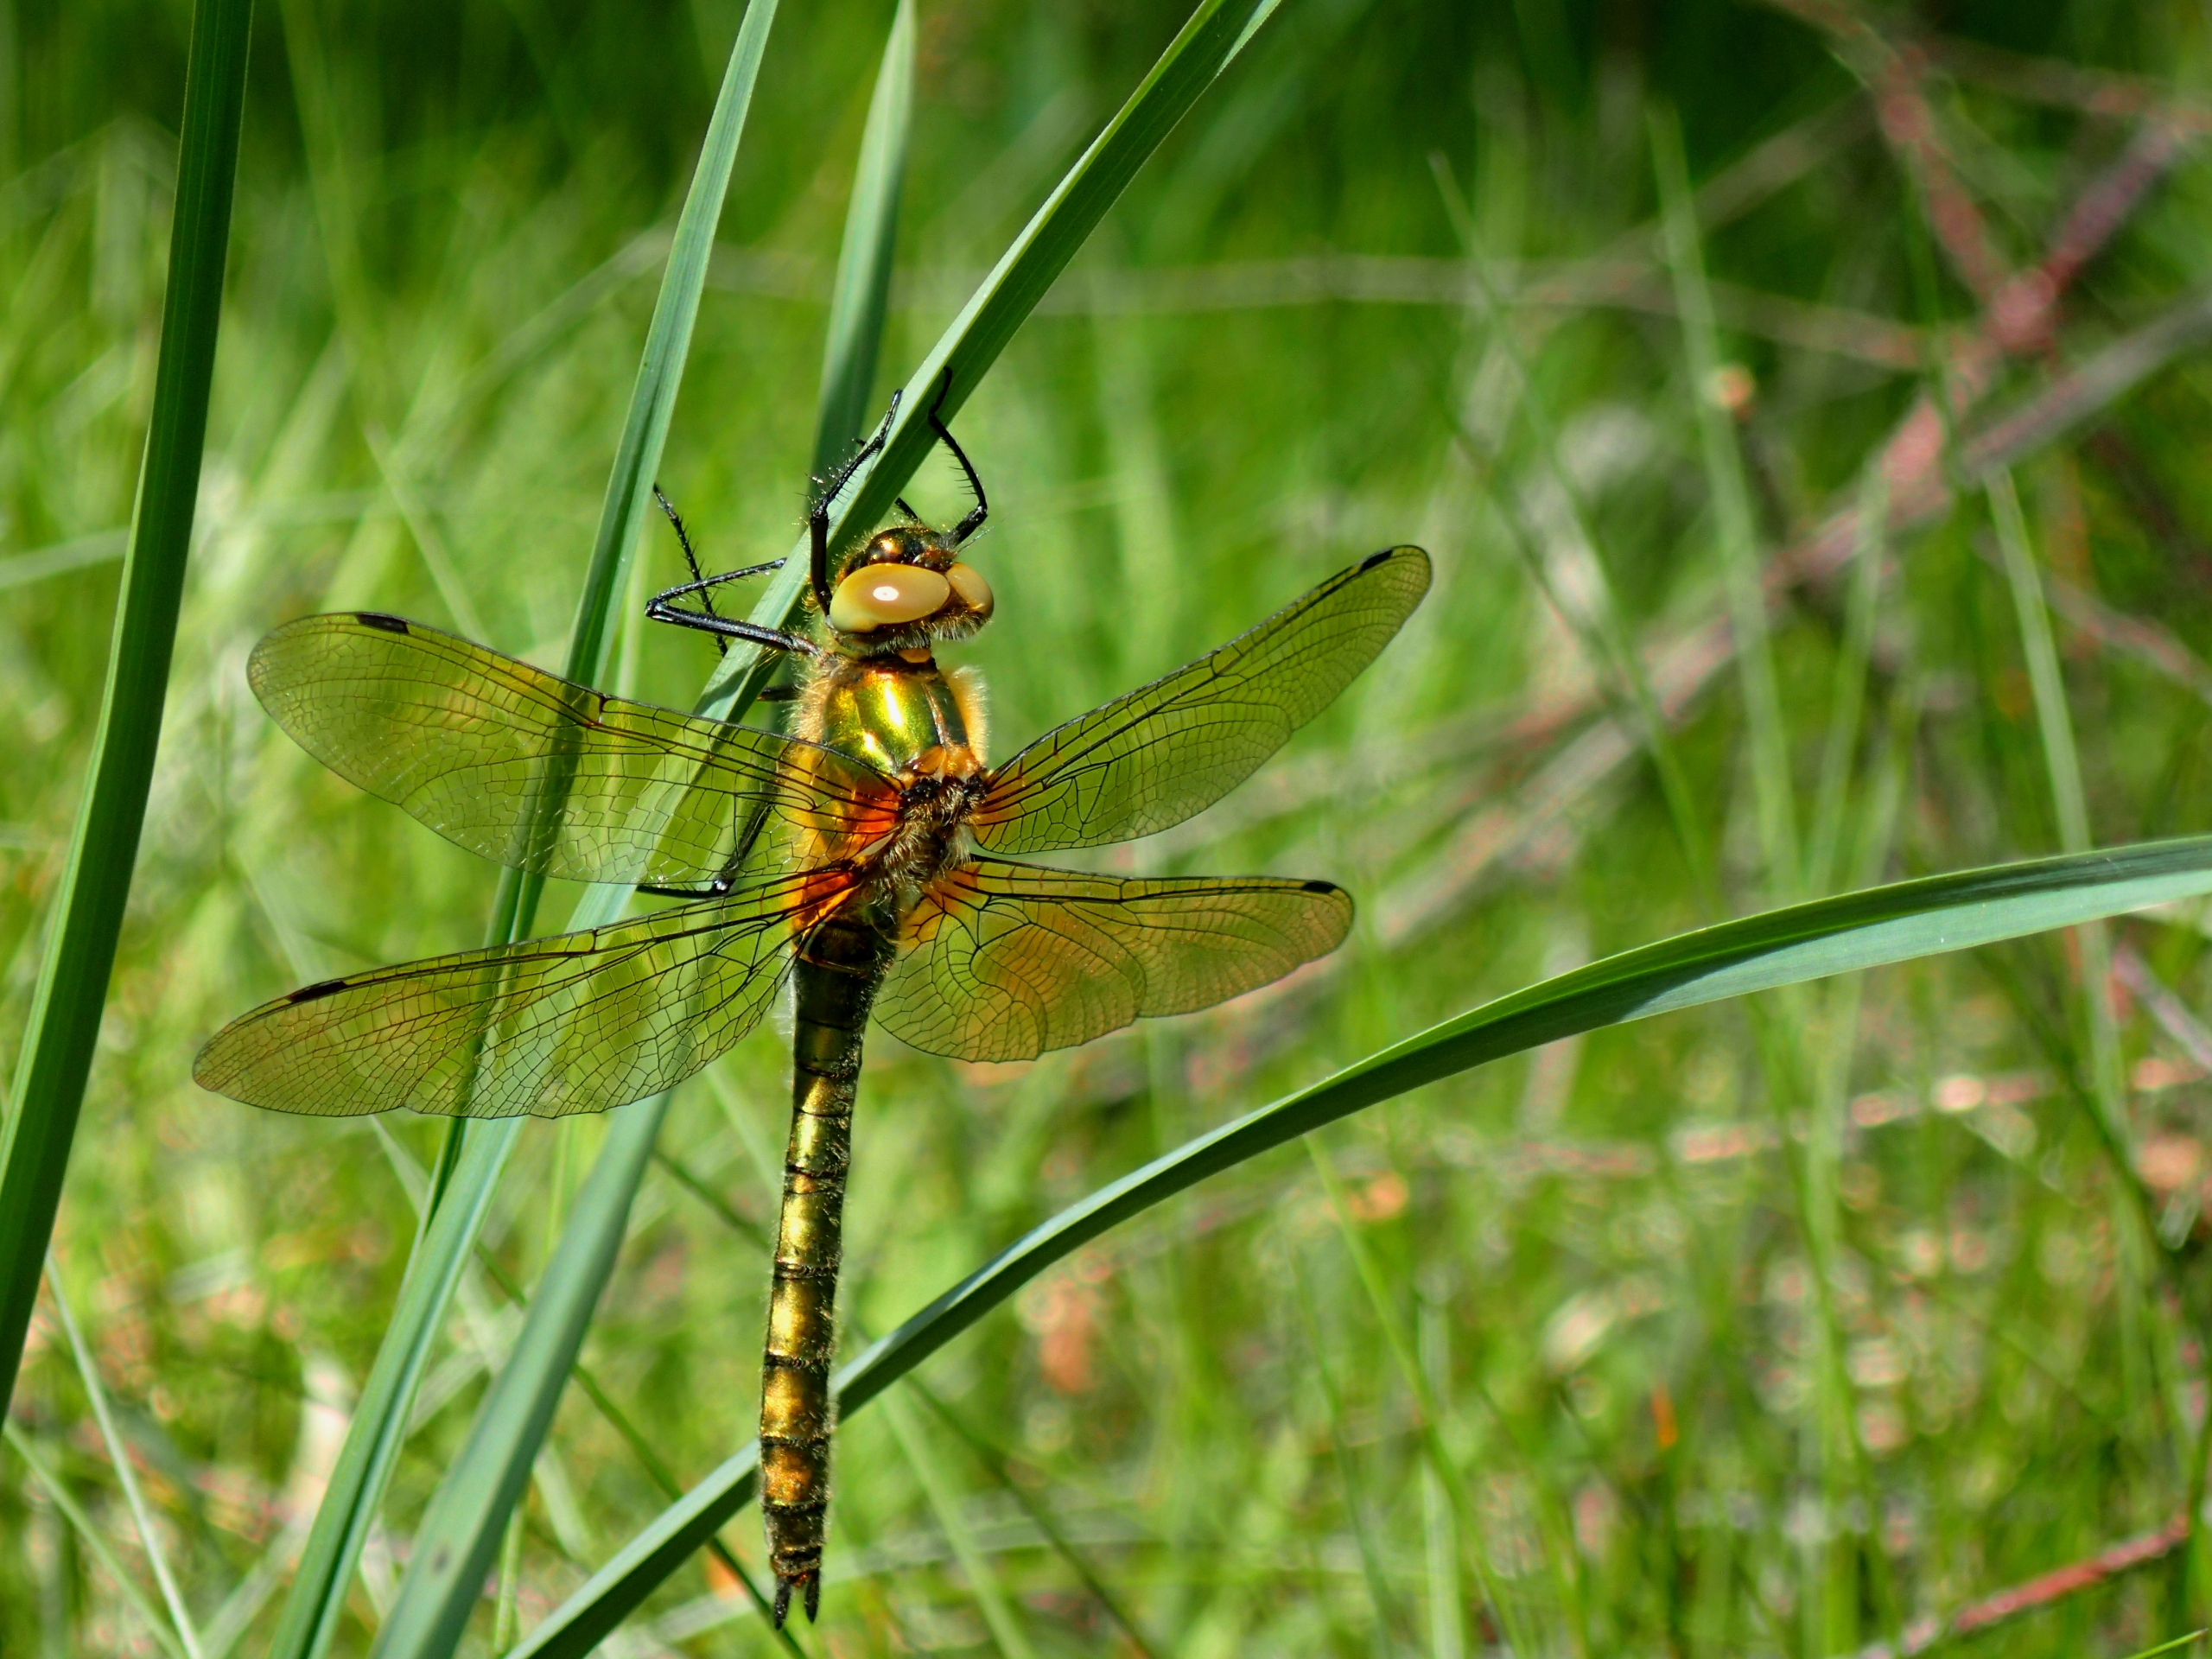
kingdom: Animalia
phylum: Arthropoda
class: Insecta
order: Odonata
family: Corduliidae
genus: Cordulia
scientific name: Cordulia aenea
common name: Grøn smaragdlibel
